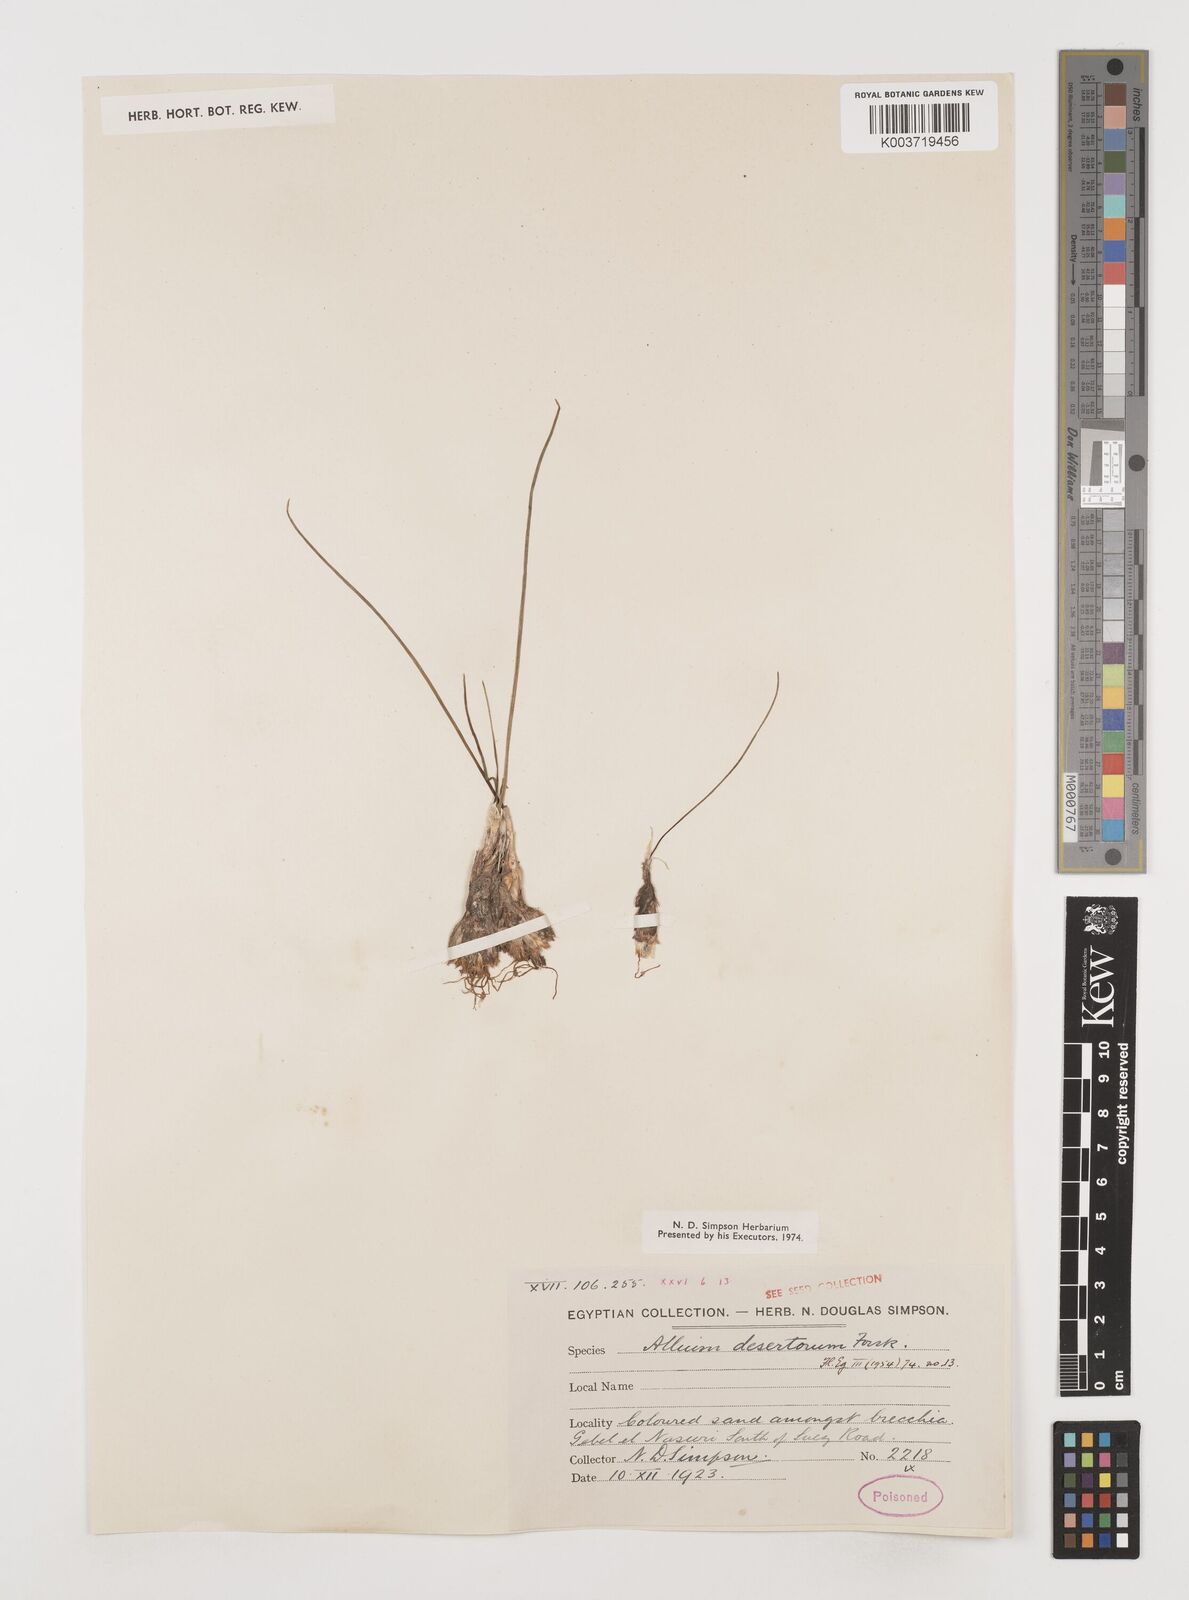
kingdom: Plantae
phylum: Tracheophyta
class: Liliopsida
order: Asparagales
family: Amaryllidaceae
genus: Allium
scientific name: Allium desertorum
